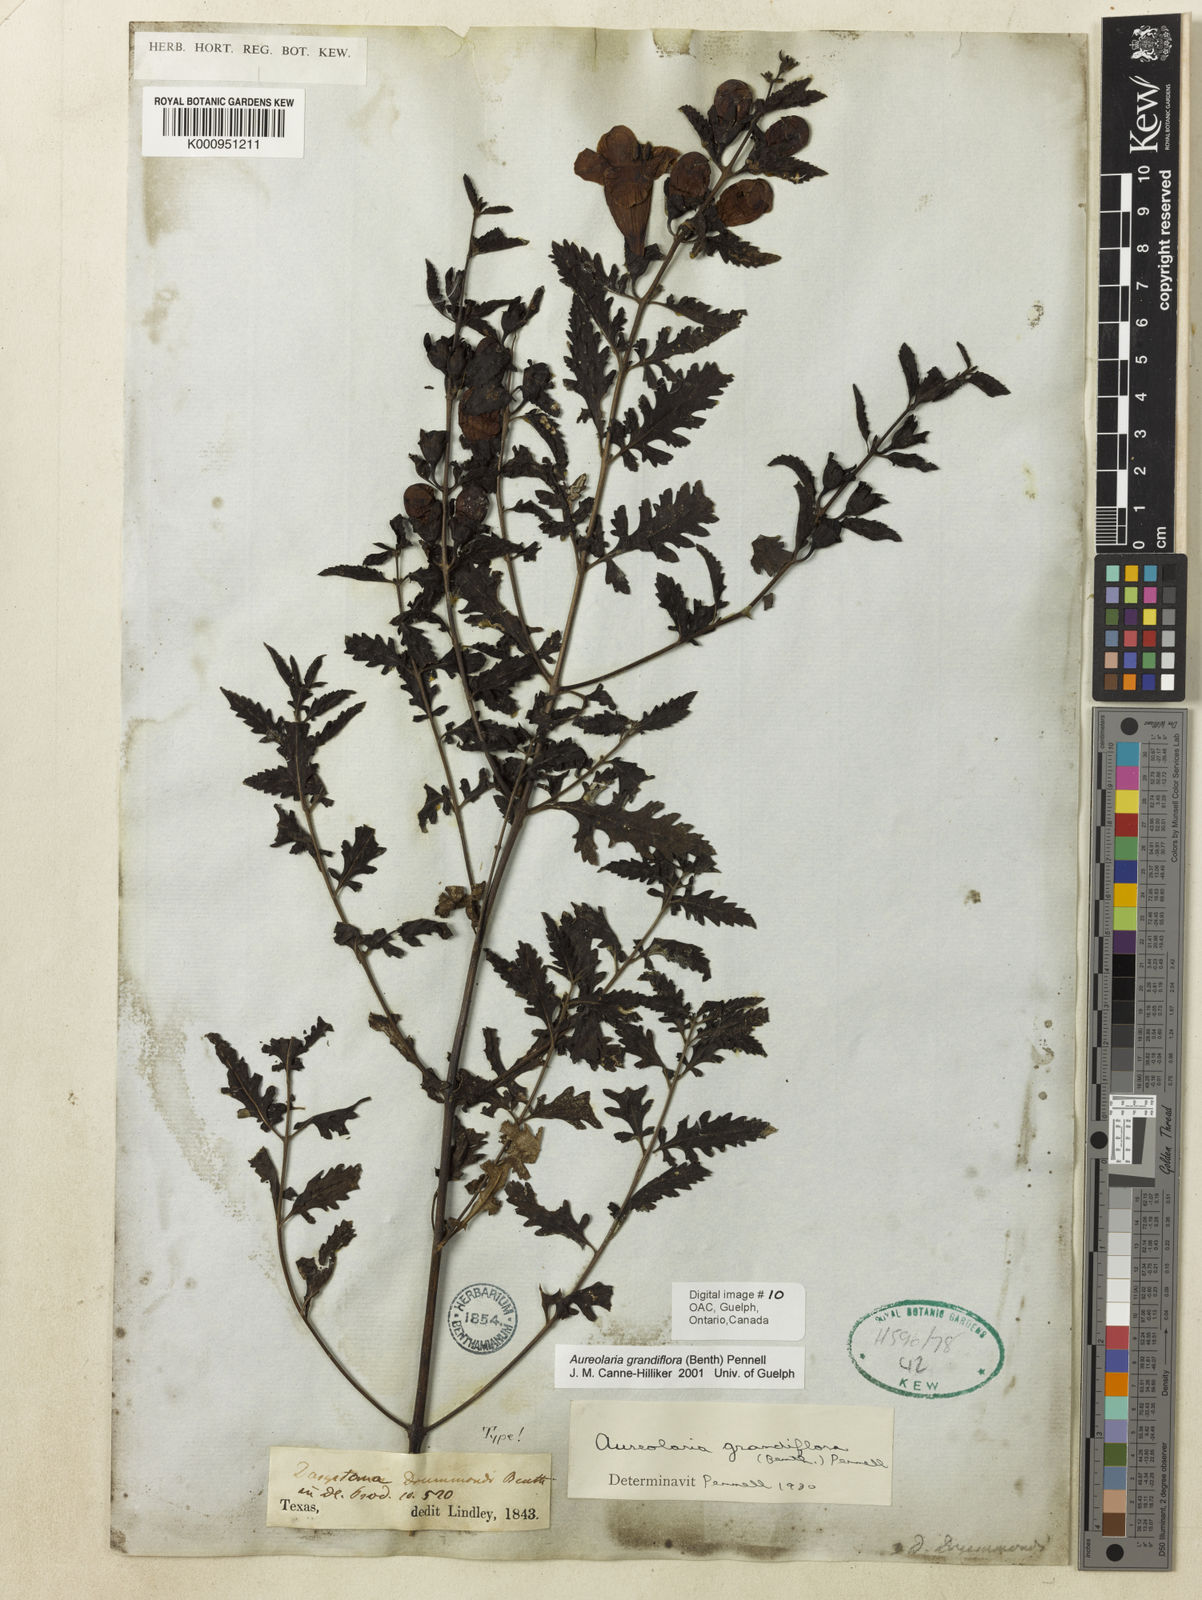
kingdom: Plantae
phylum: Tracheophyta
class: Magnoliopsida
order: Lamiales
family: Orobanchaceae
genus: Aureolaria
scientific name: Aureolaria grandiflora
